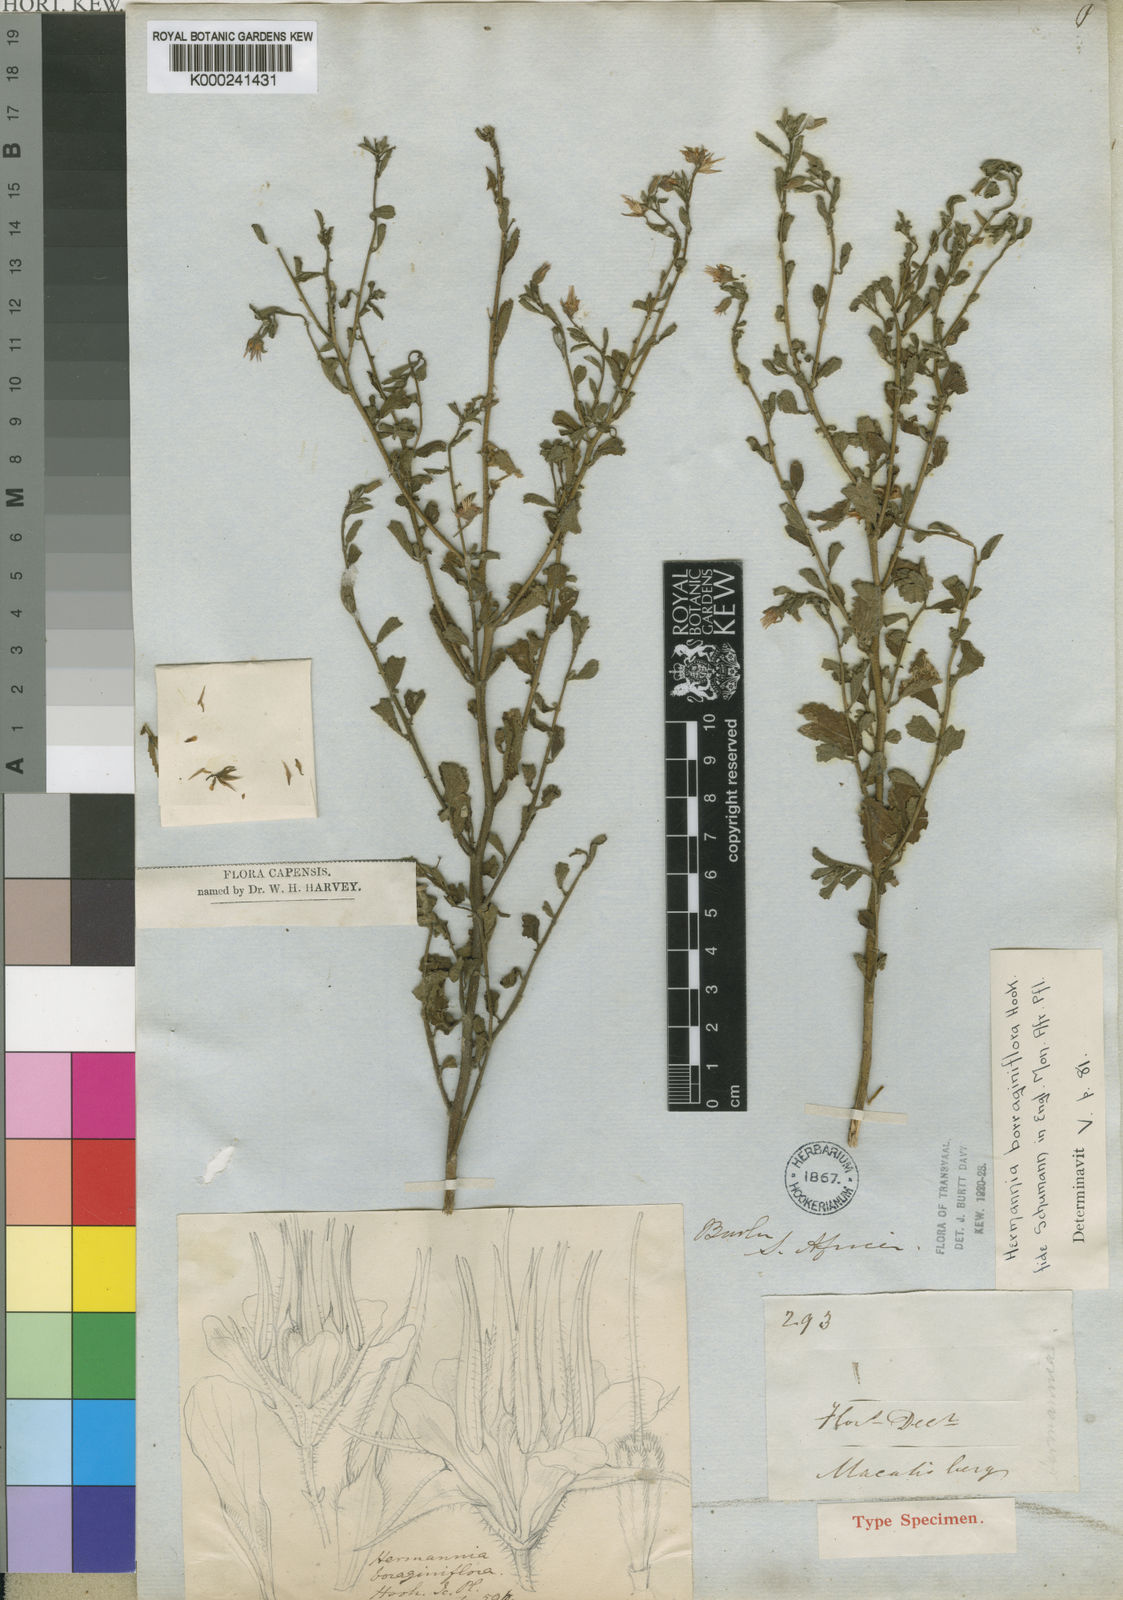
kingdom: Plantae
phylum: Tracheophyta
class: Magnoliopsida
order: Malvales
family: Malvaceae
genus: Hermannia
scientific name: Hermannia boraginiflora
